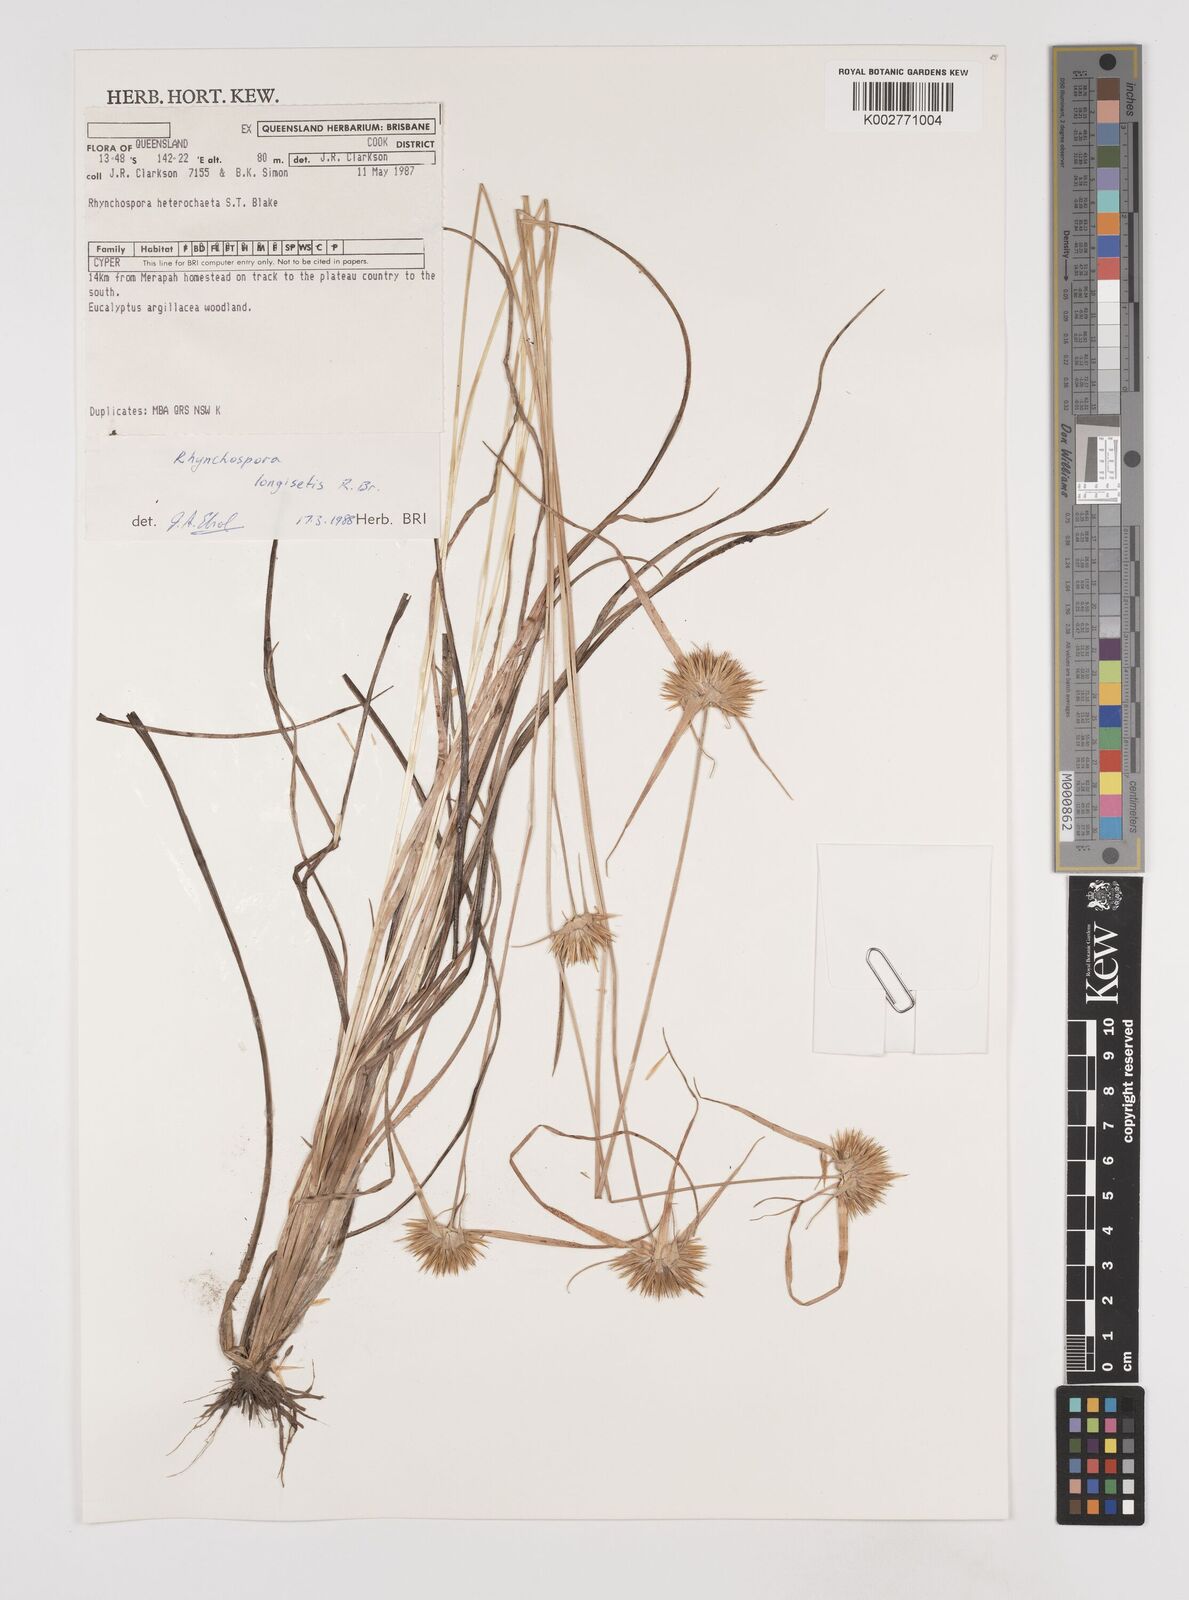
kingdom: Plantae
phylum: Tracheophyta
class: Liliopsida
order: Poales
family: Cyperaceae
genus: Rhynchospora
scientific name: Rhynchospora longisetis
